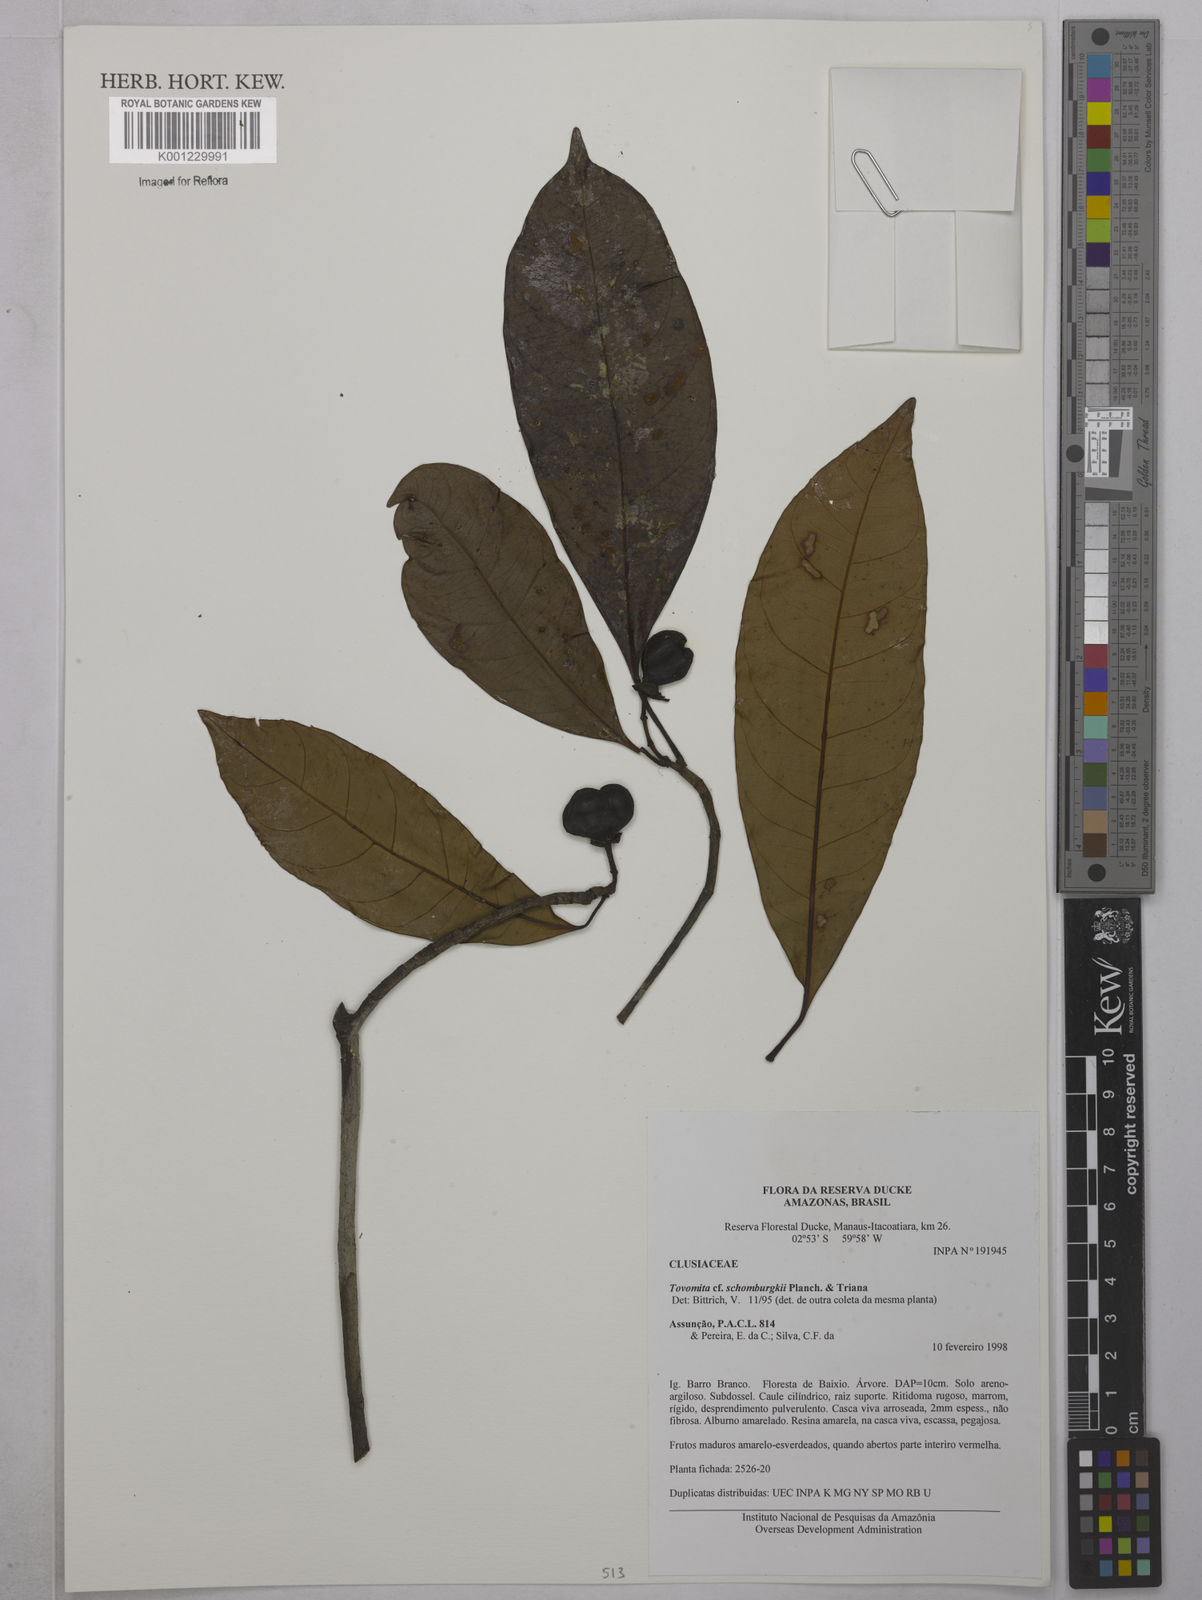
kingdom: Plantae
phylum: Tracheophyta
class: Magnoliopsida
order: Malpighiales
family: Clusiaceae
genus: Tovomita
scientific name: Tovomita schomburgkii
